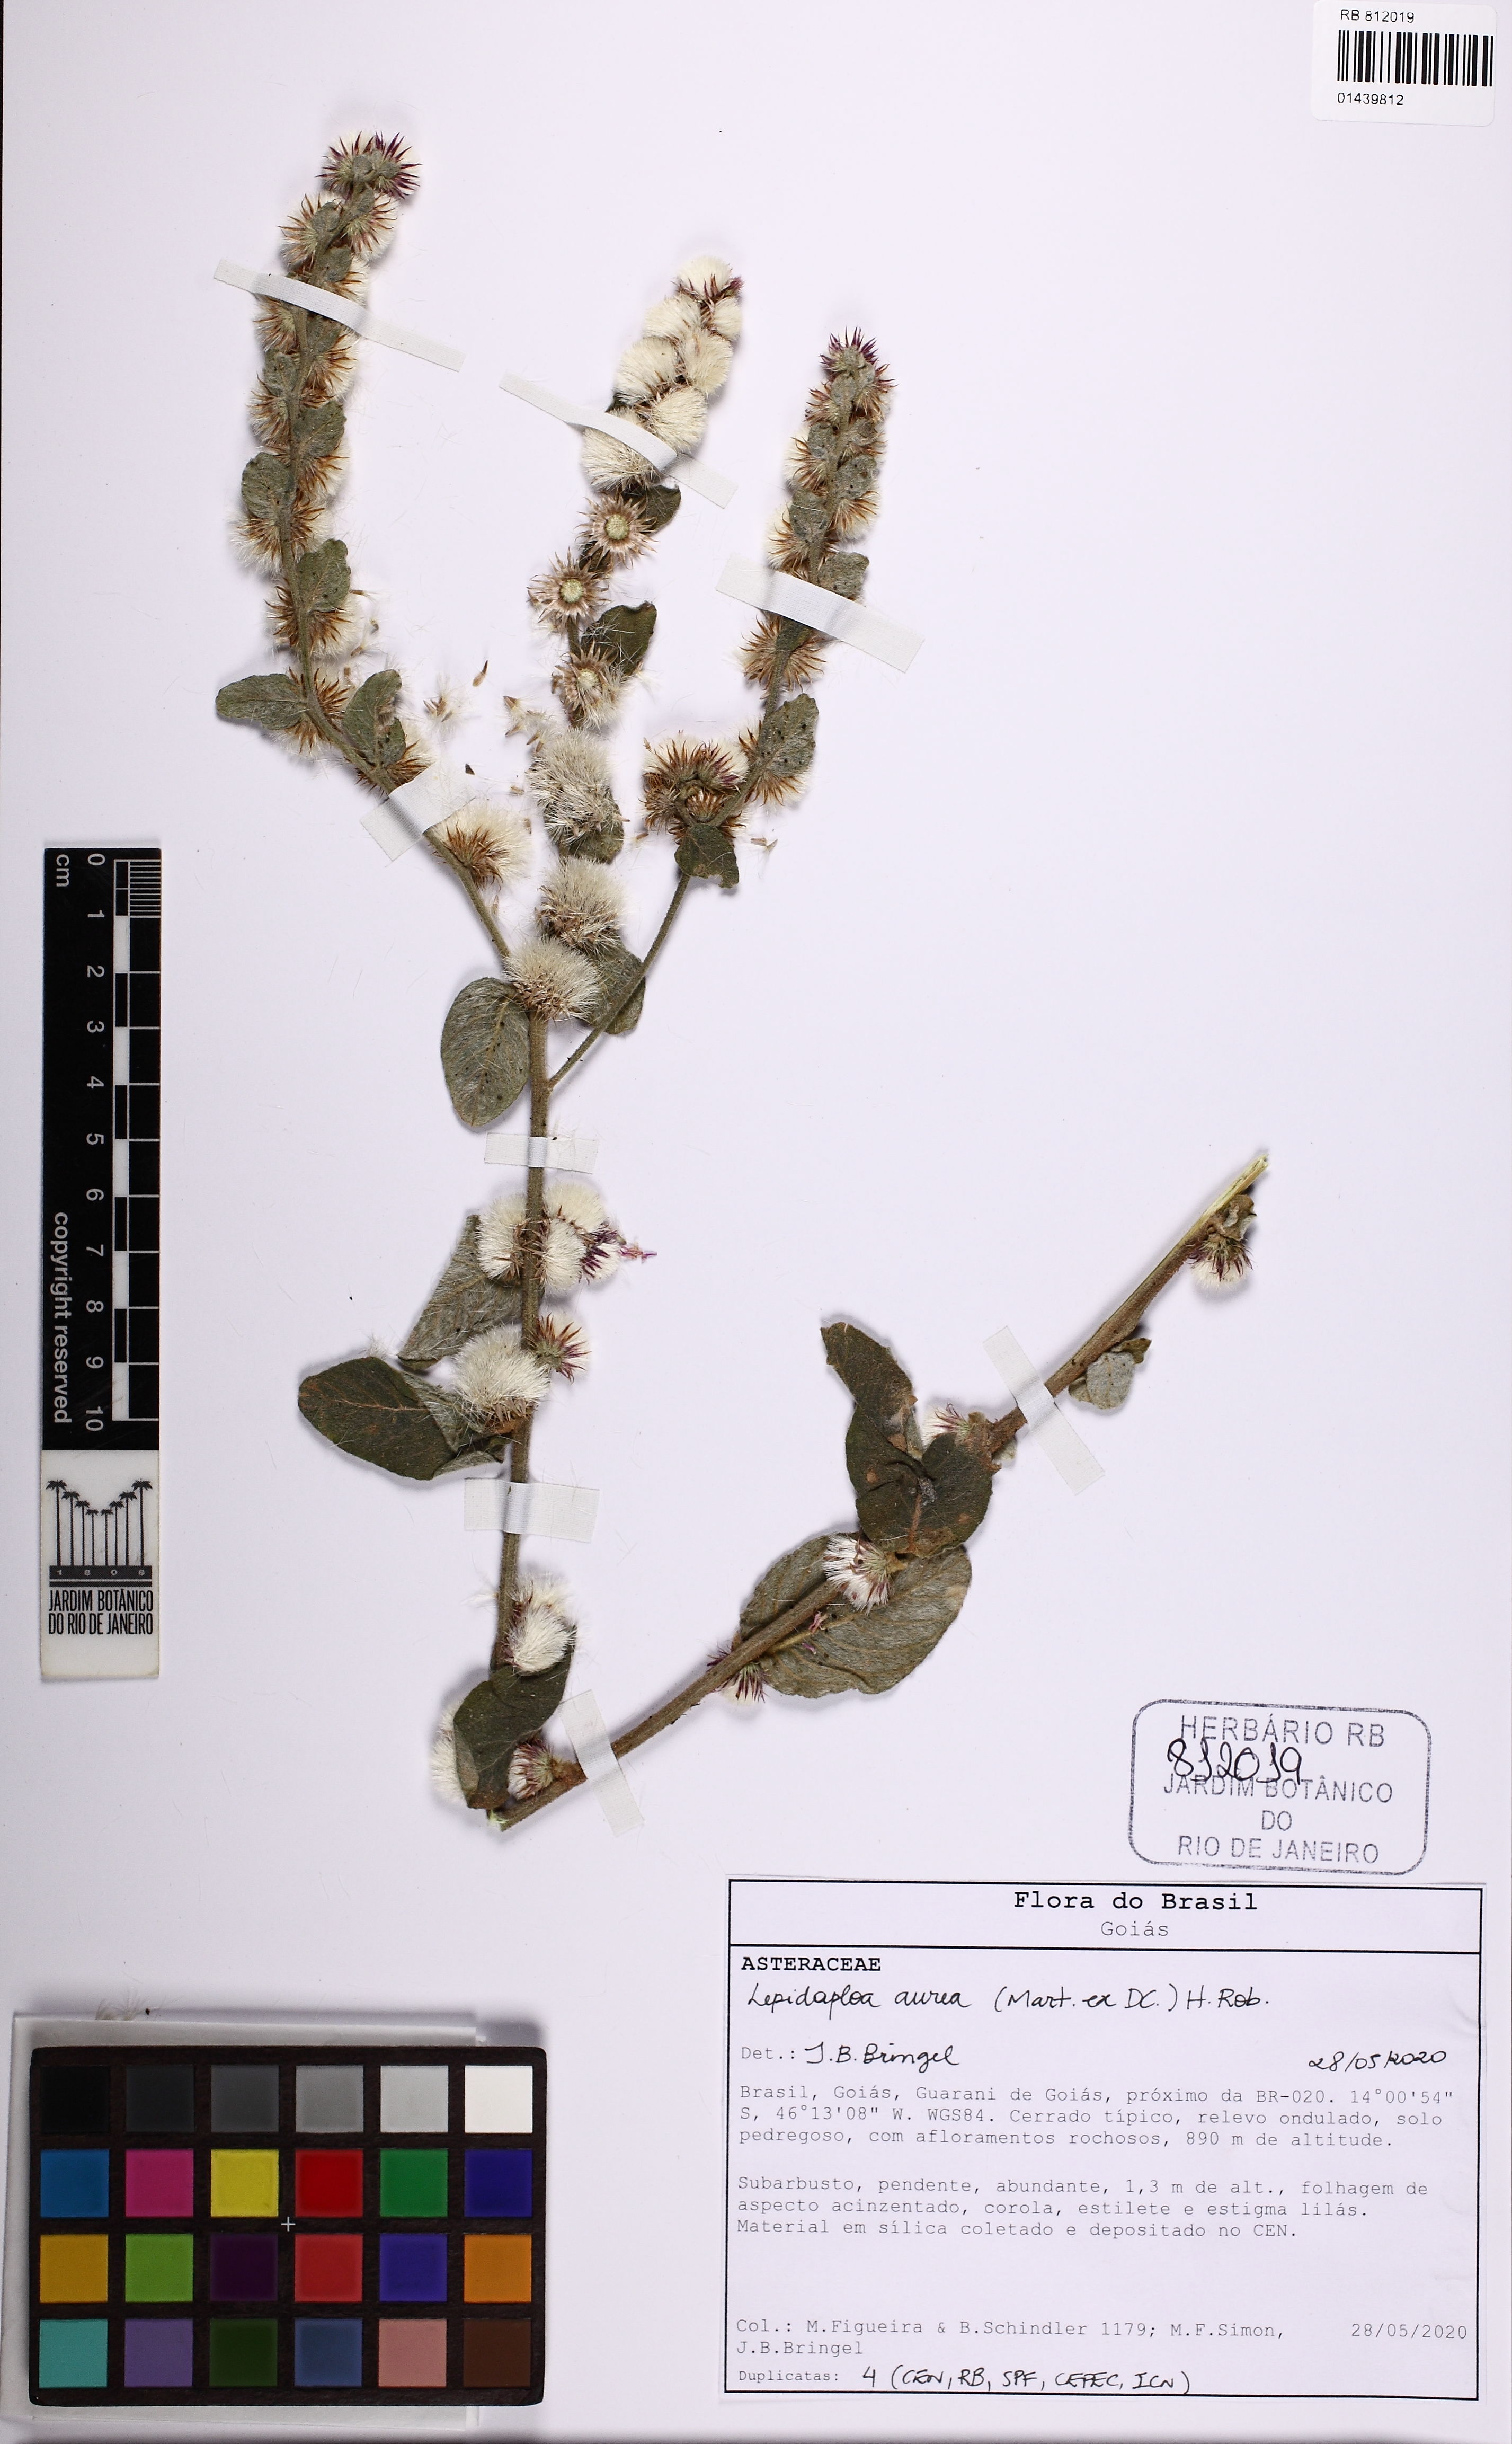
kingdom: Plantae
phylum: Tracheophyta
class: Magnoliopsida
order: Asterales
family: Asteraceae
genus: Lepidaploa
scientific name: Lepidaploa aurea
